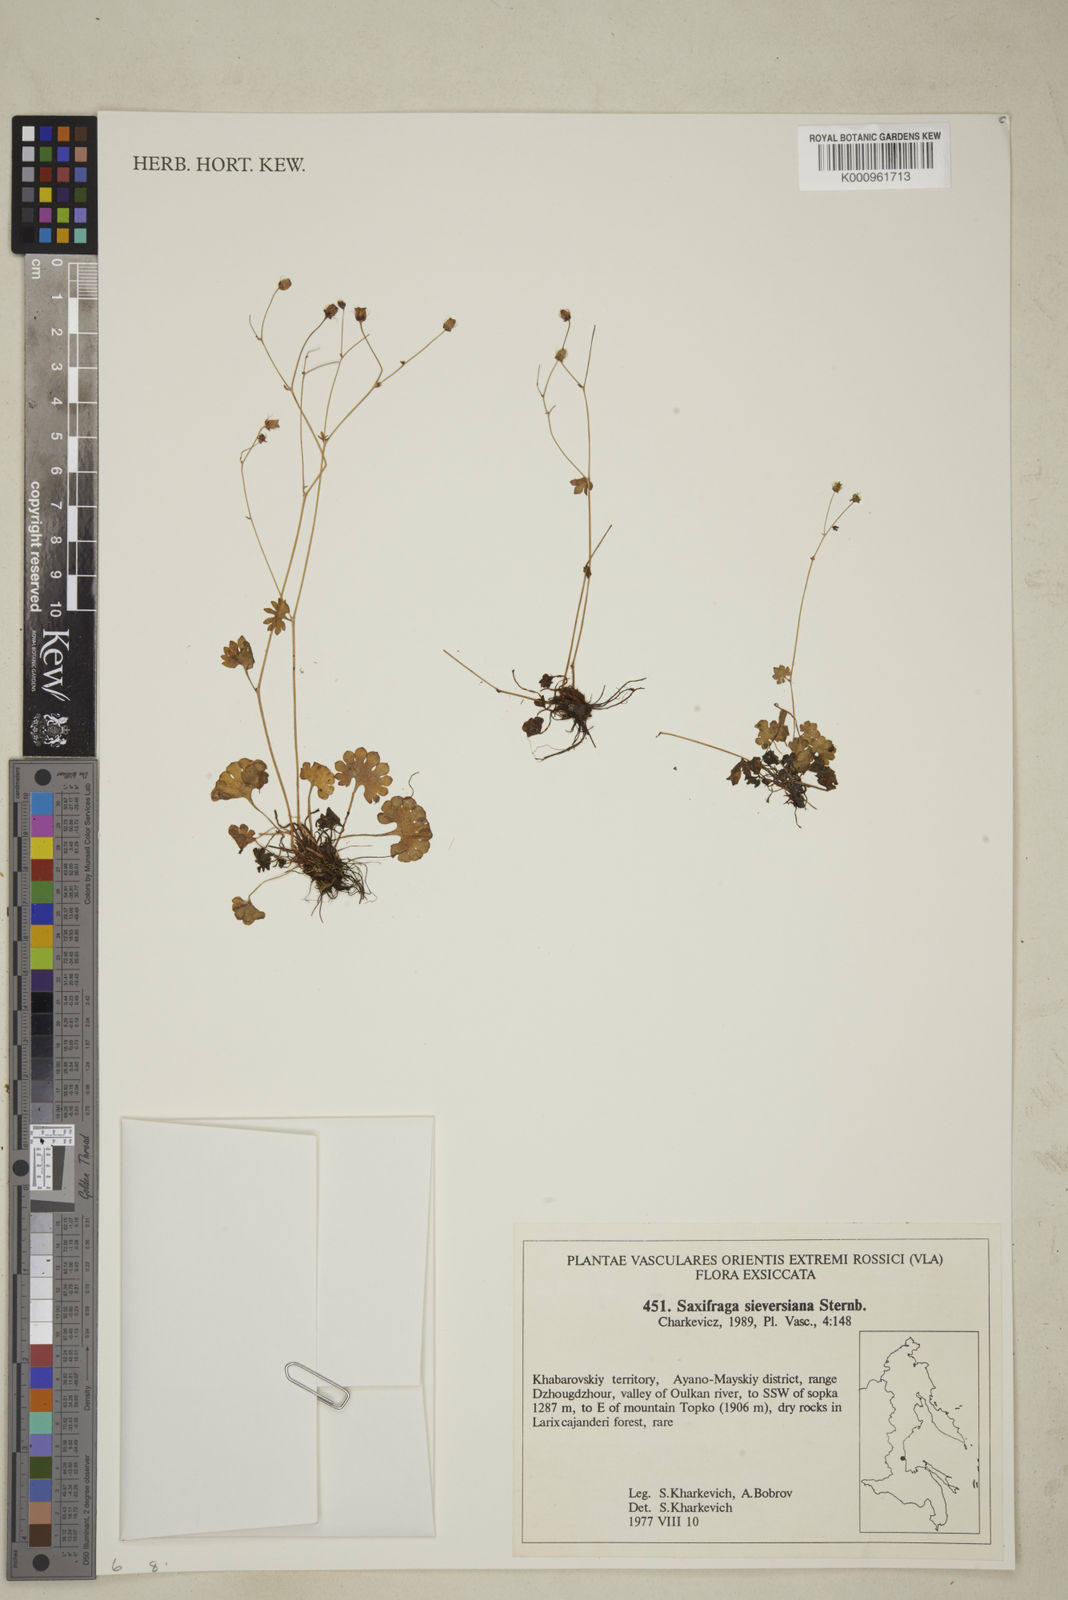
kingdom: Plantae
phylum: Tracheophyta
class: Magnoliopsida
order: Saxifragales
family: Saxifragaceae
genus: Saxifraga
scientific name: Saxifraga sieversiana
